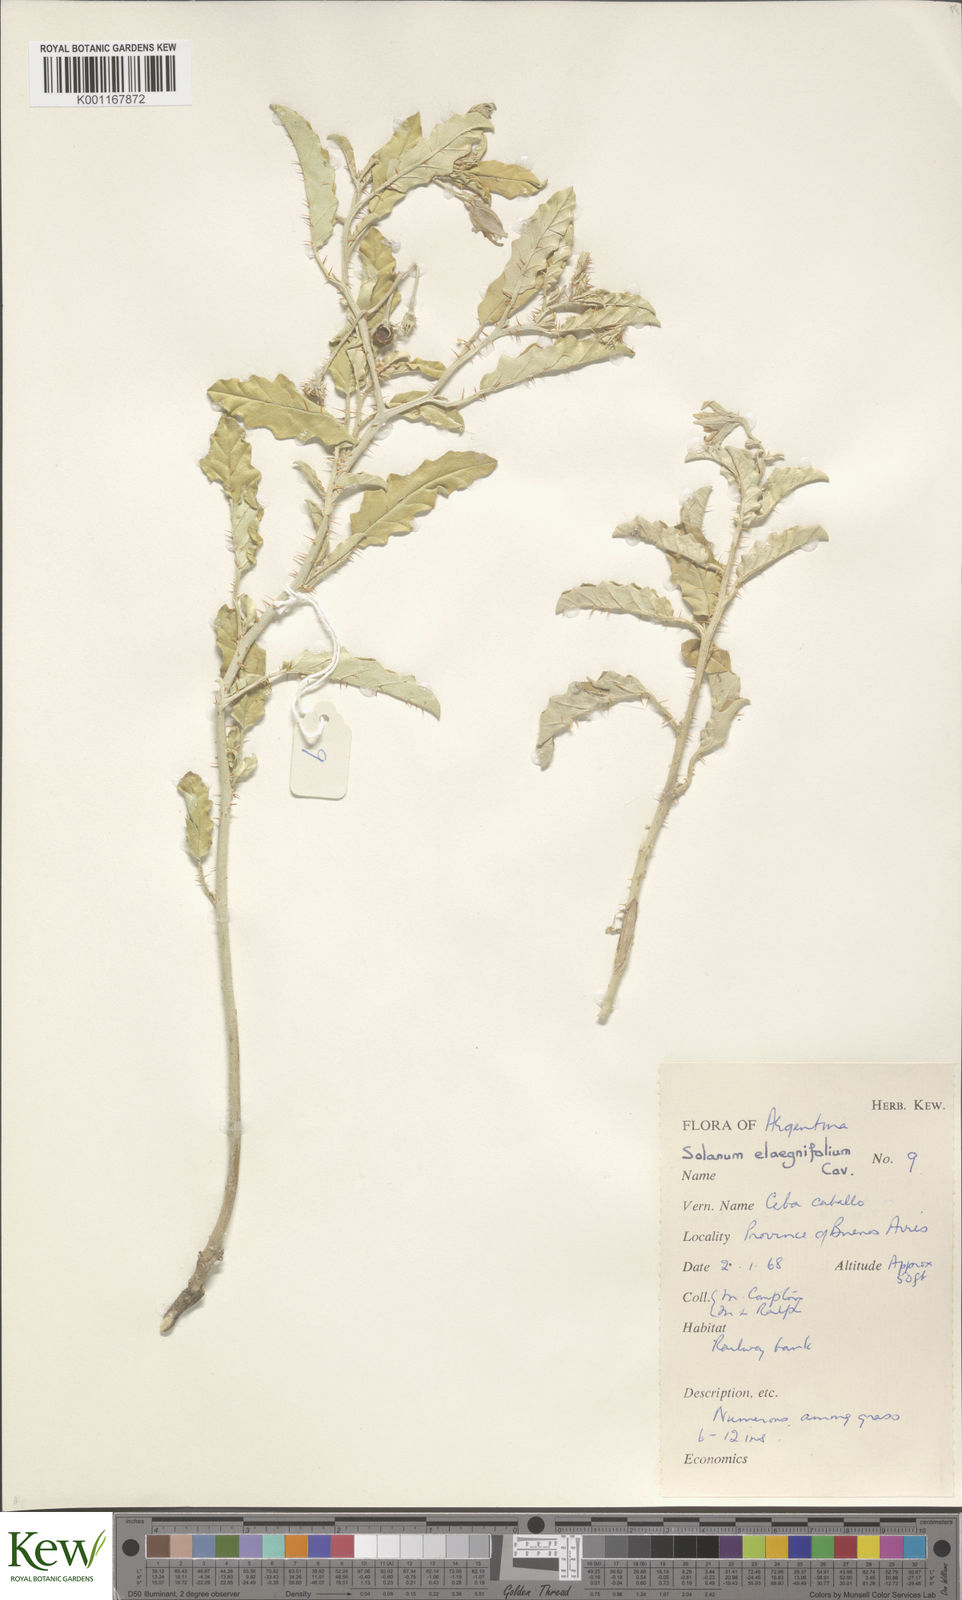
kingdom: Plantae
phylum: Tracheophyta
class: Magnoliopsida
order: Solanales
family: Solanaceae
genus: Solanum
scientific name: Solanum elaeagnifolium
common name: Silverleaf nightshade
